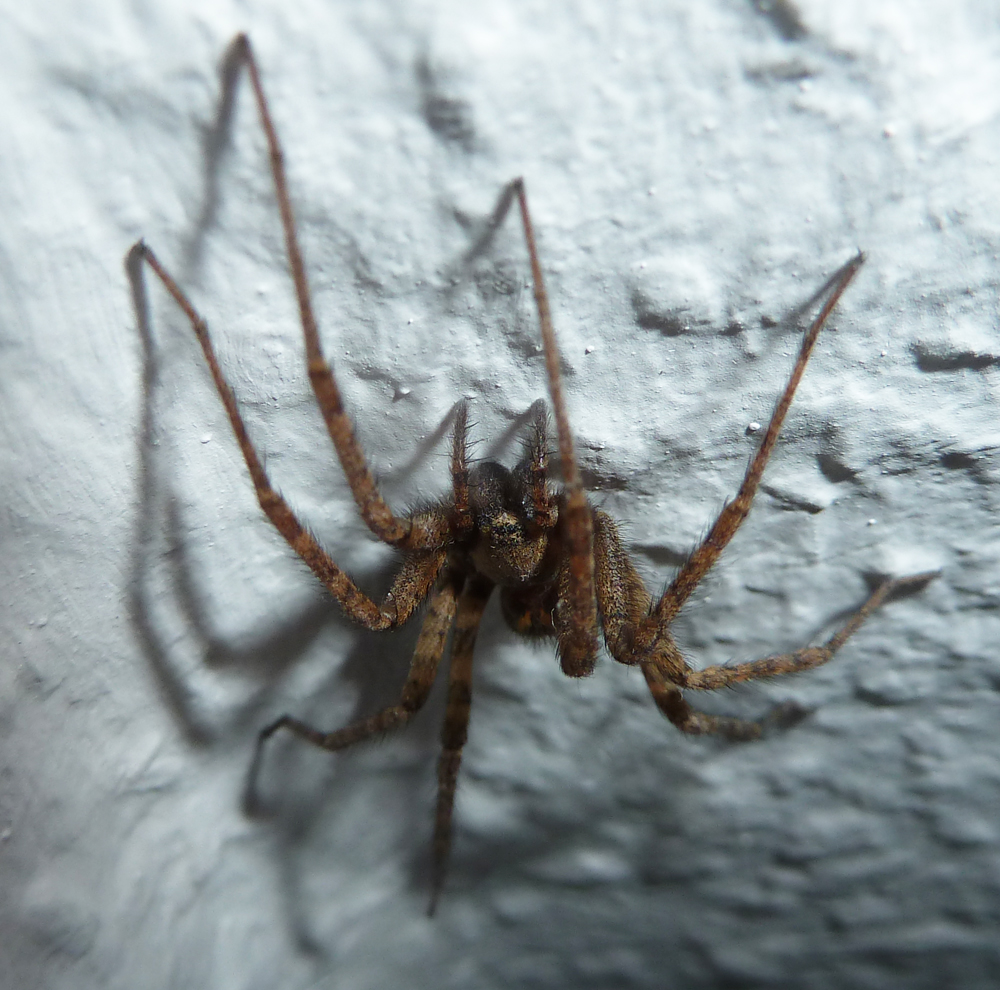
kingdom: Animalia
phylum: Arthropoda
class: Arachnida
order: Araneae
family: Agelenidae
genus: Eratigena
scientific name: Eratigena atrica
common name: Giant house spider
